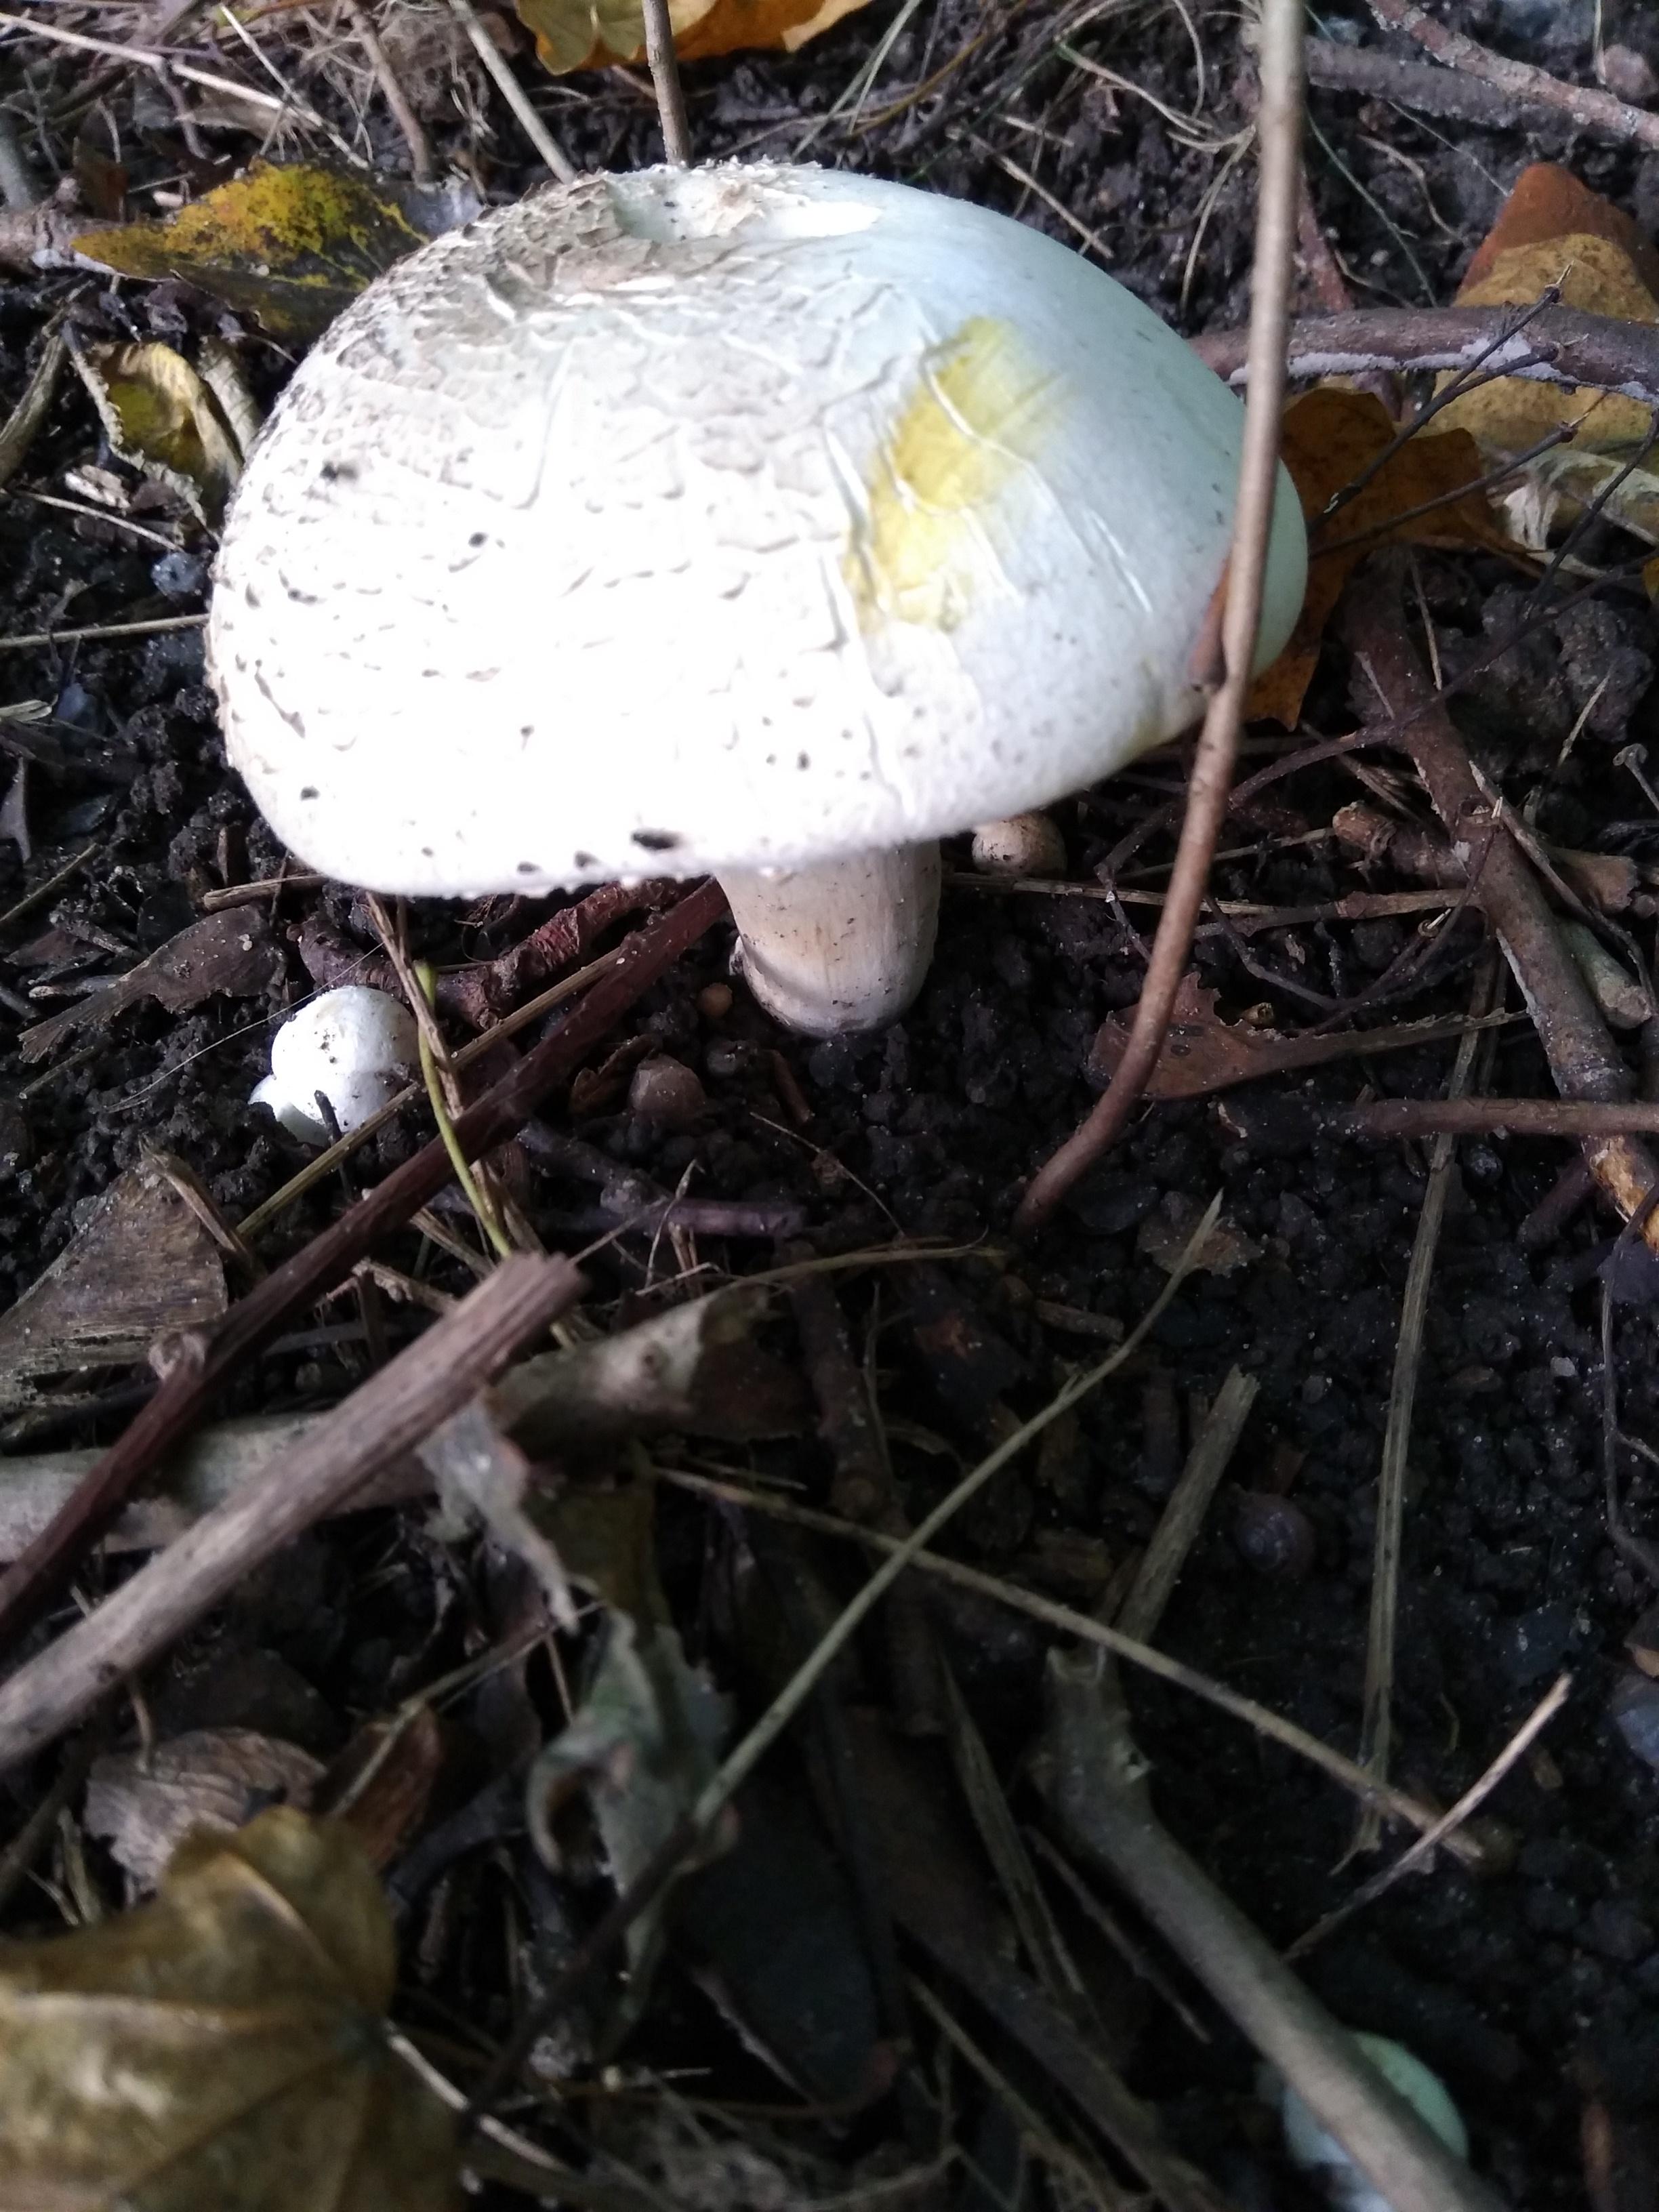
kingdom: Fungi
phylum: Basidiomycota
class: Agaricomycetes
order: Agaricales
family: Agaricaceae
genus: Agaricus
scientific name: Agaricus xanthodermus
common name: karbol-champignon
